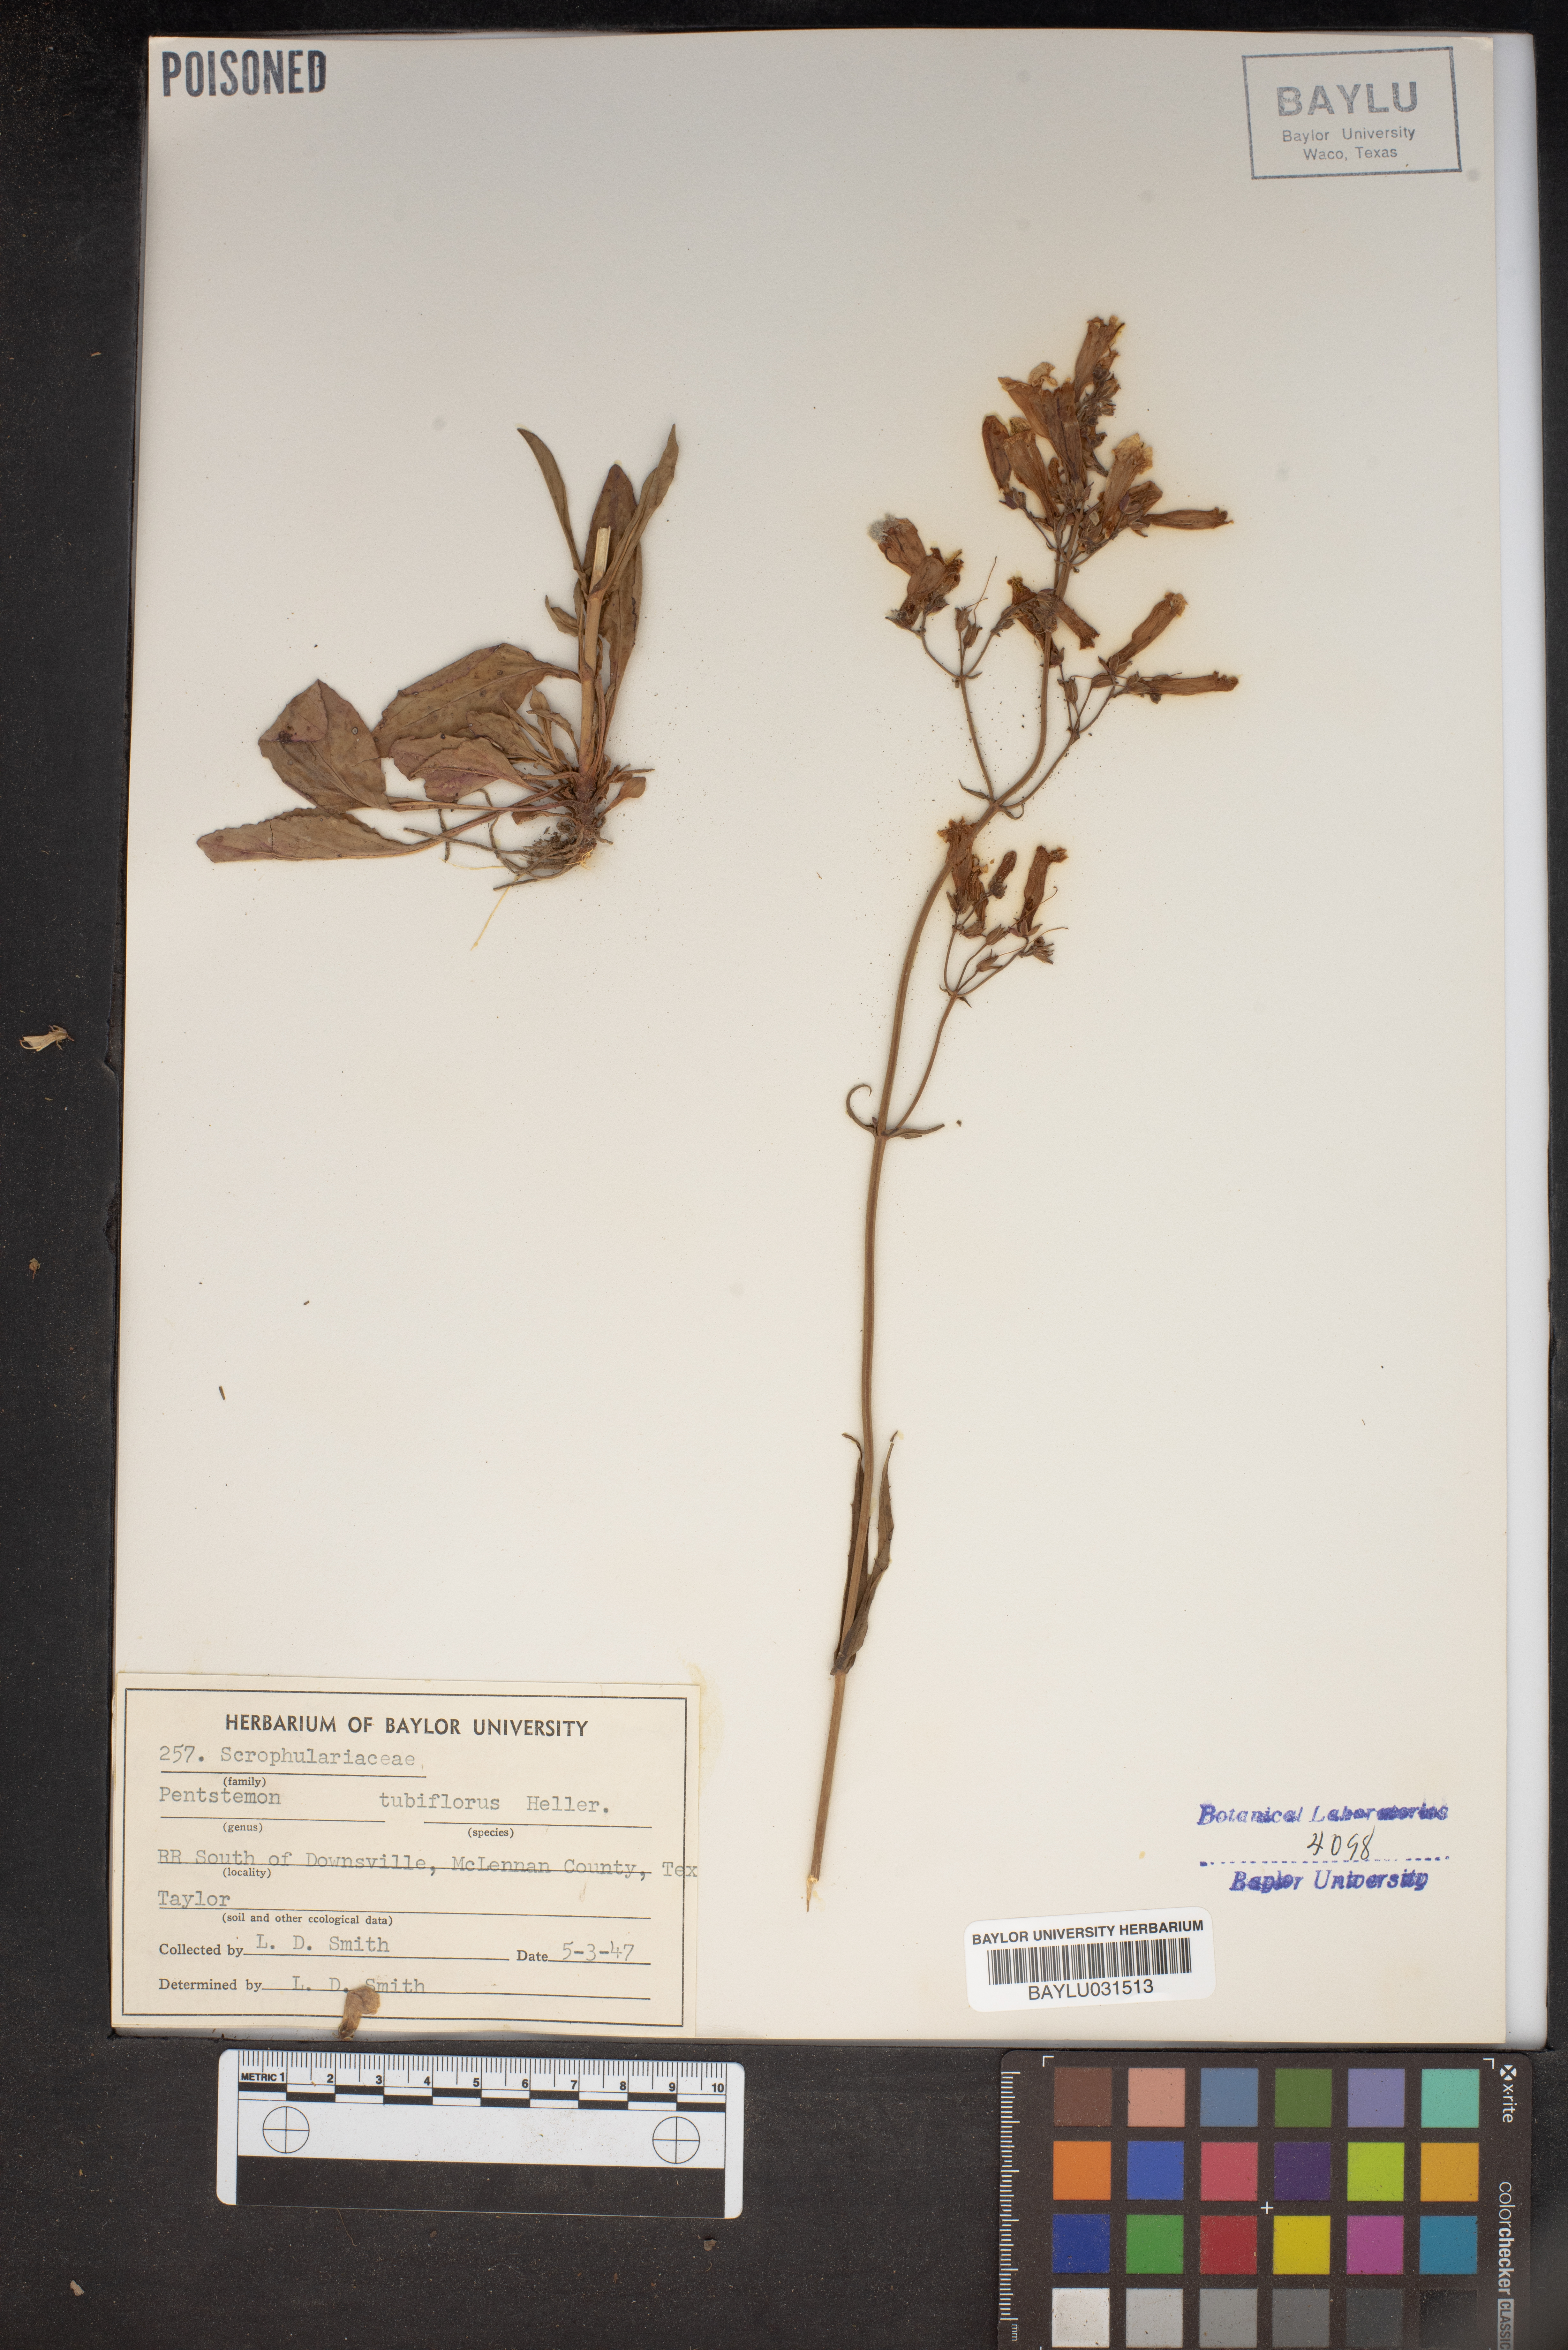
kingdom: Plantae
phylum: Tracheophyta
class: Magnoliopsida
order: Lamiales
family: Plantaginaceae
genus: Penstemon
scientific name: Penstemon tubaeflorus
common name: White wand beardtongue
